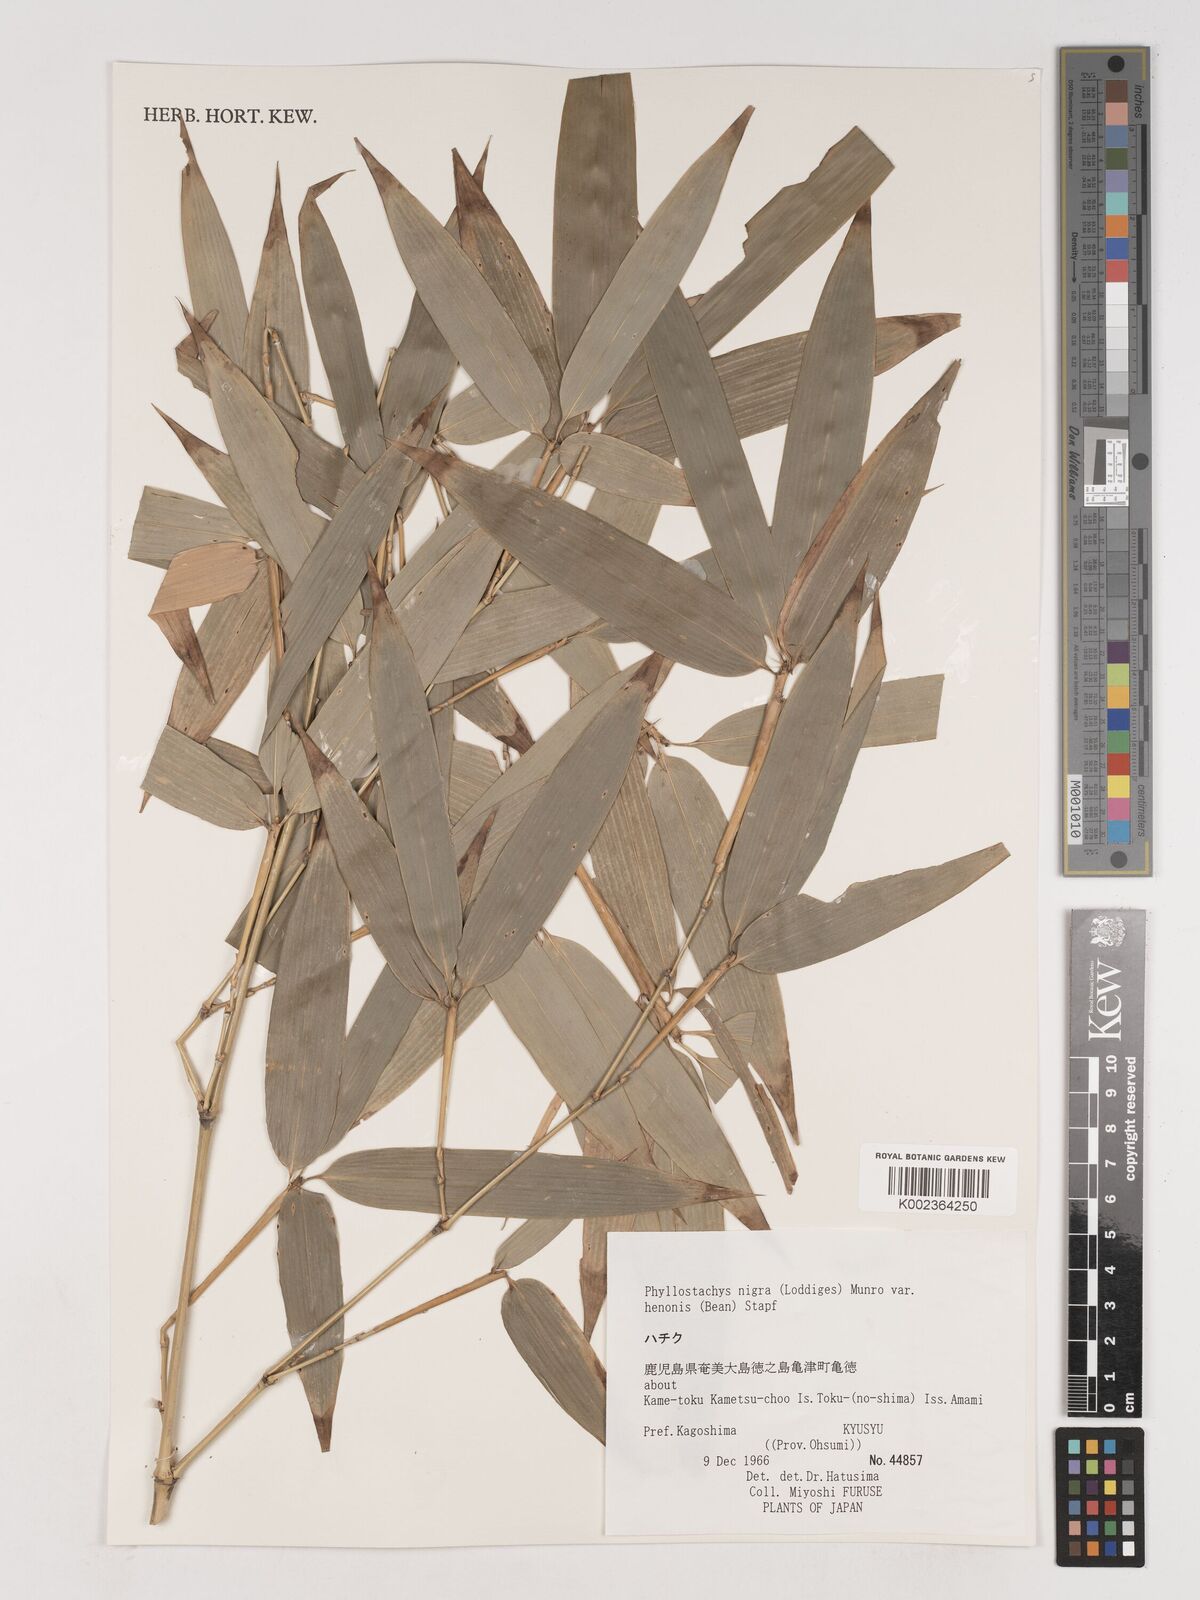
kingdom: Plantae
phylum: Tracheophyta
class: Liliopsida
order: Poales
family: Poaceae
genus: Phyllostachys
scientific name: Phyllostachys nigra
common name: Black bamboo
